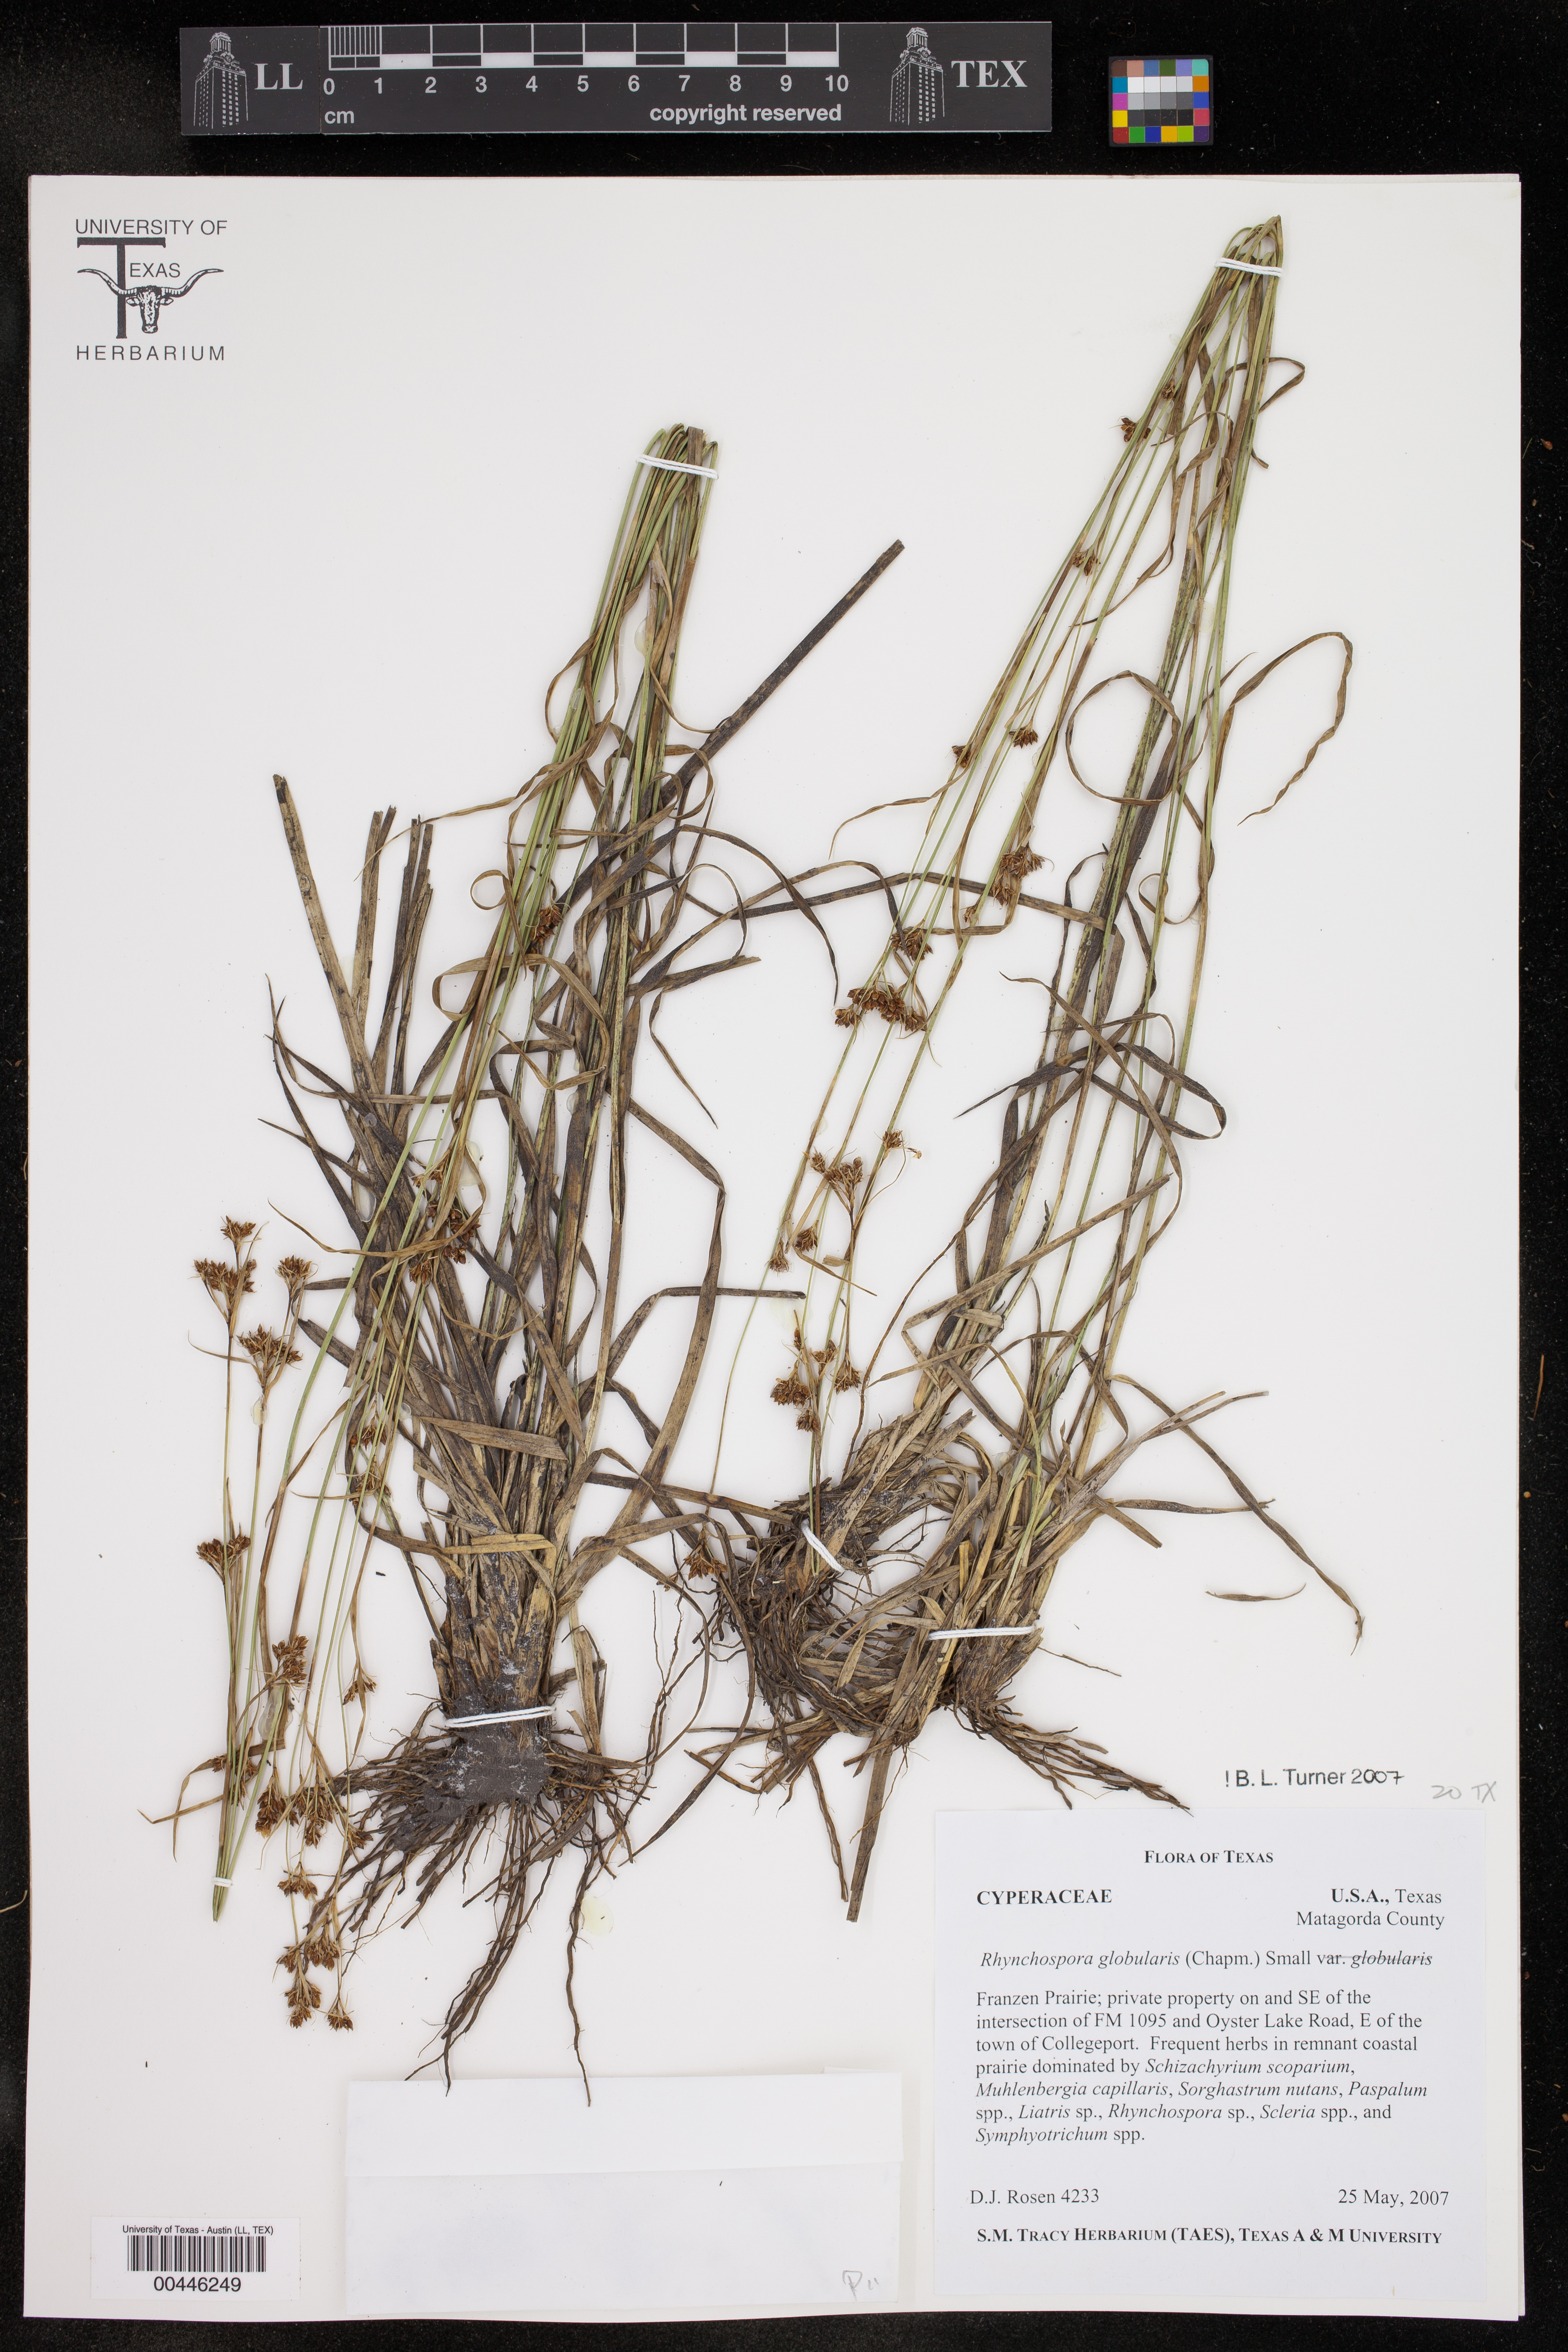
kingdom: Plantae
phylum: Tracheophyta
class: Liliopsida
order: Poales
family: Cyperaceae
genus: Rhynchospora
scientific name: Rhynchospora globularis
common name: Globe beaksedge
